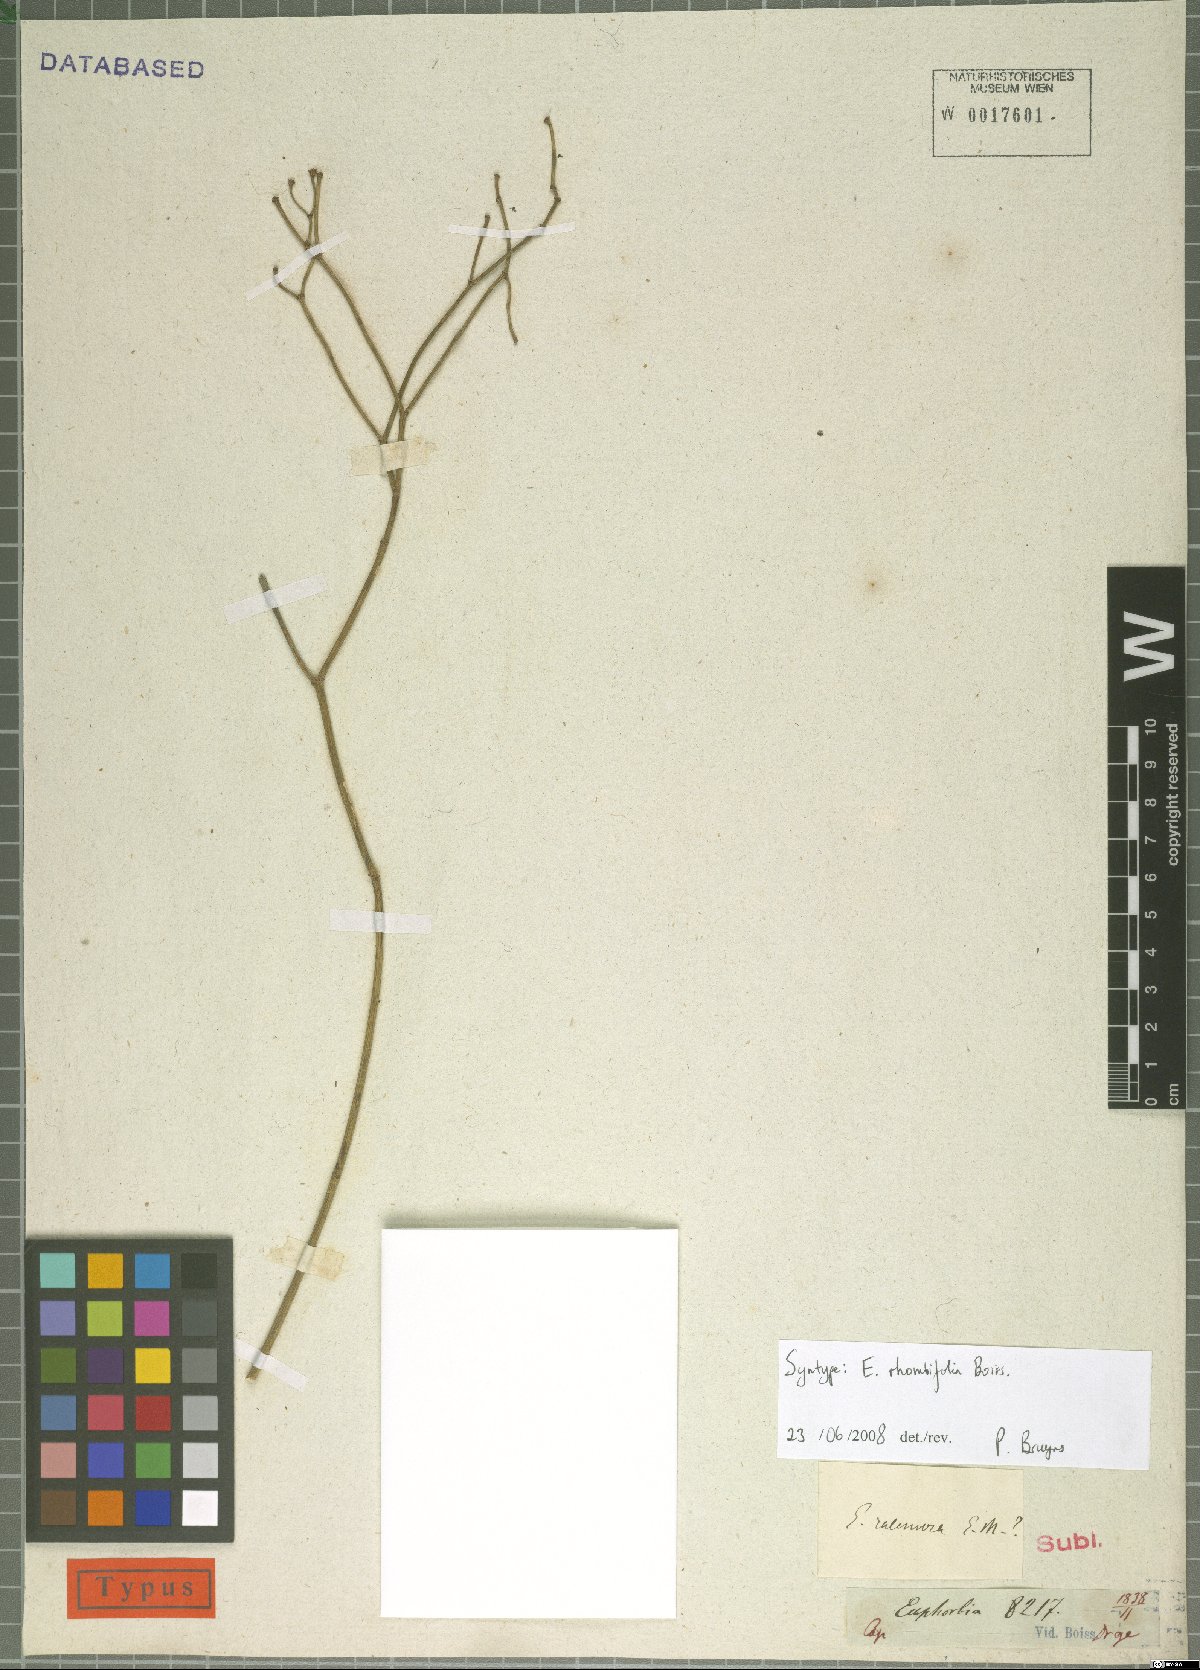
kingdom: Plantae
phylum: Tracheophyta
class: Magnoliopsida
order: Malpighiales
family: Euphorbiaceae
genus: Euphorbia
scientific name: Euphorbia rhombifolia
